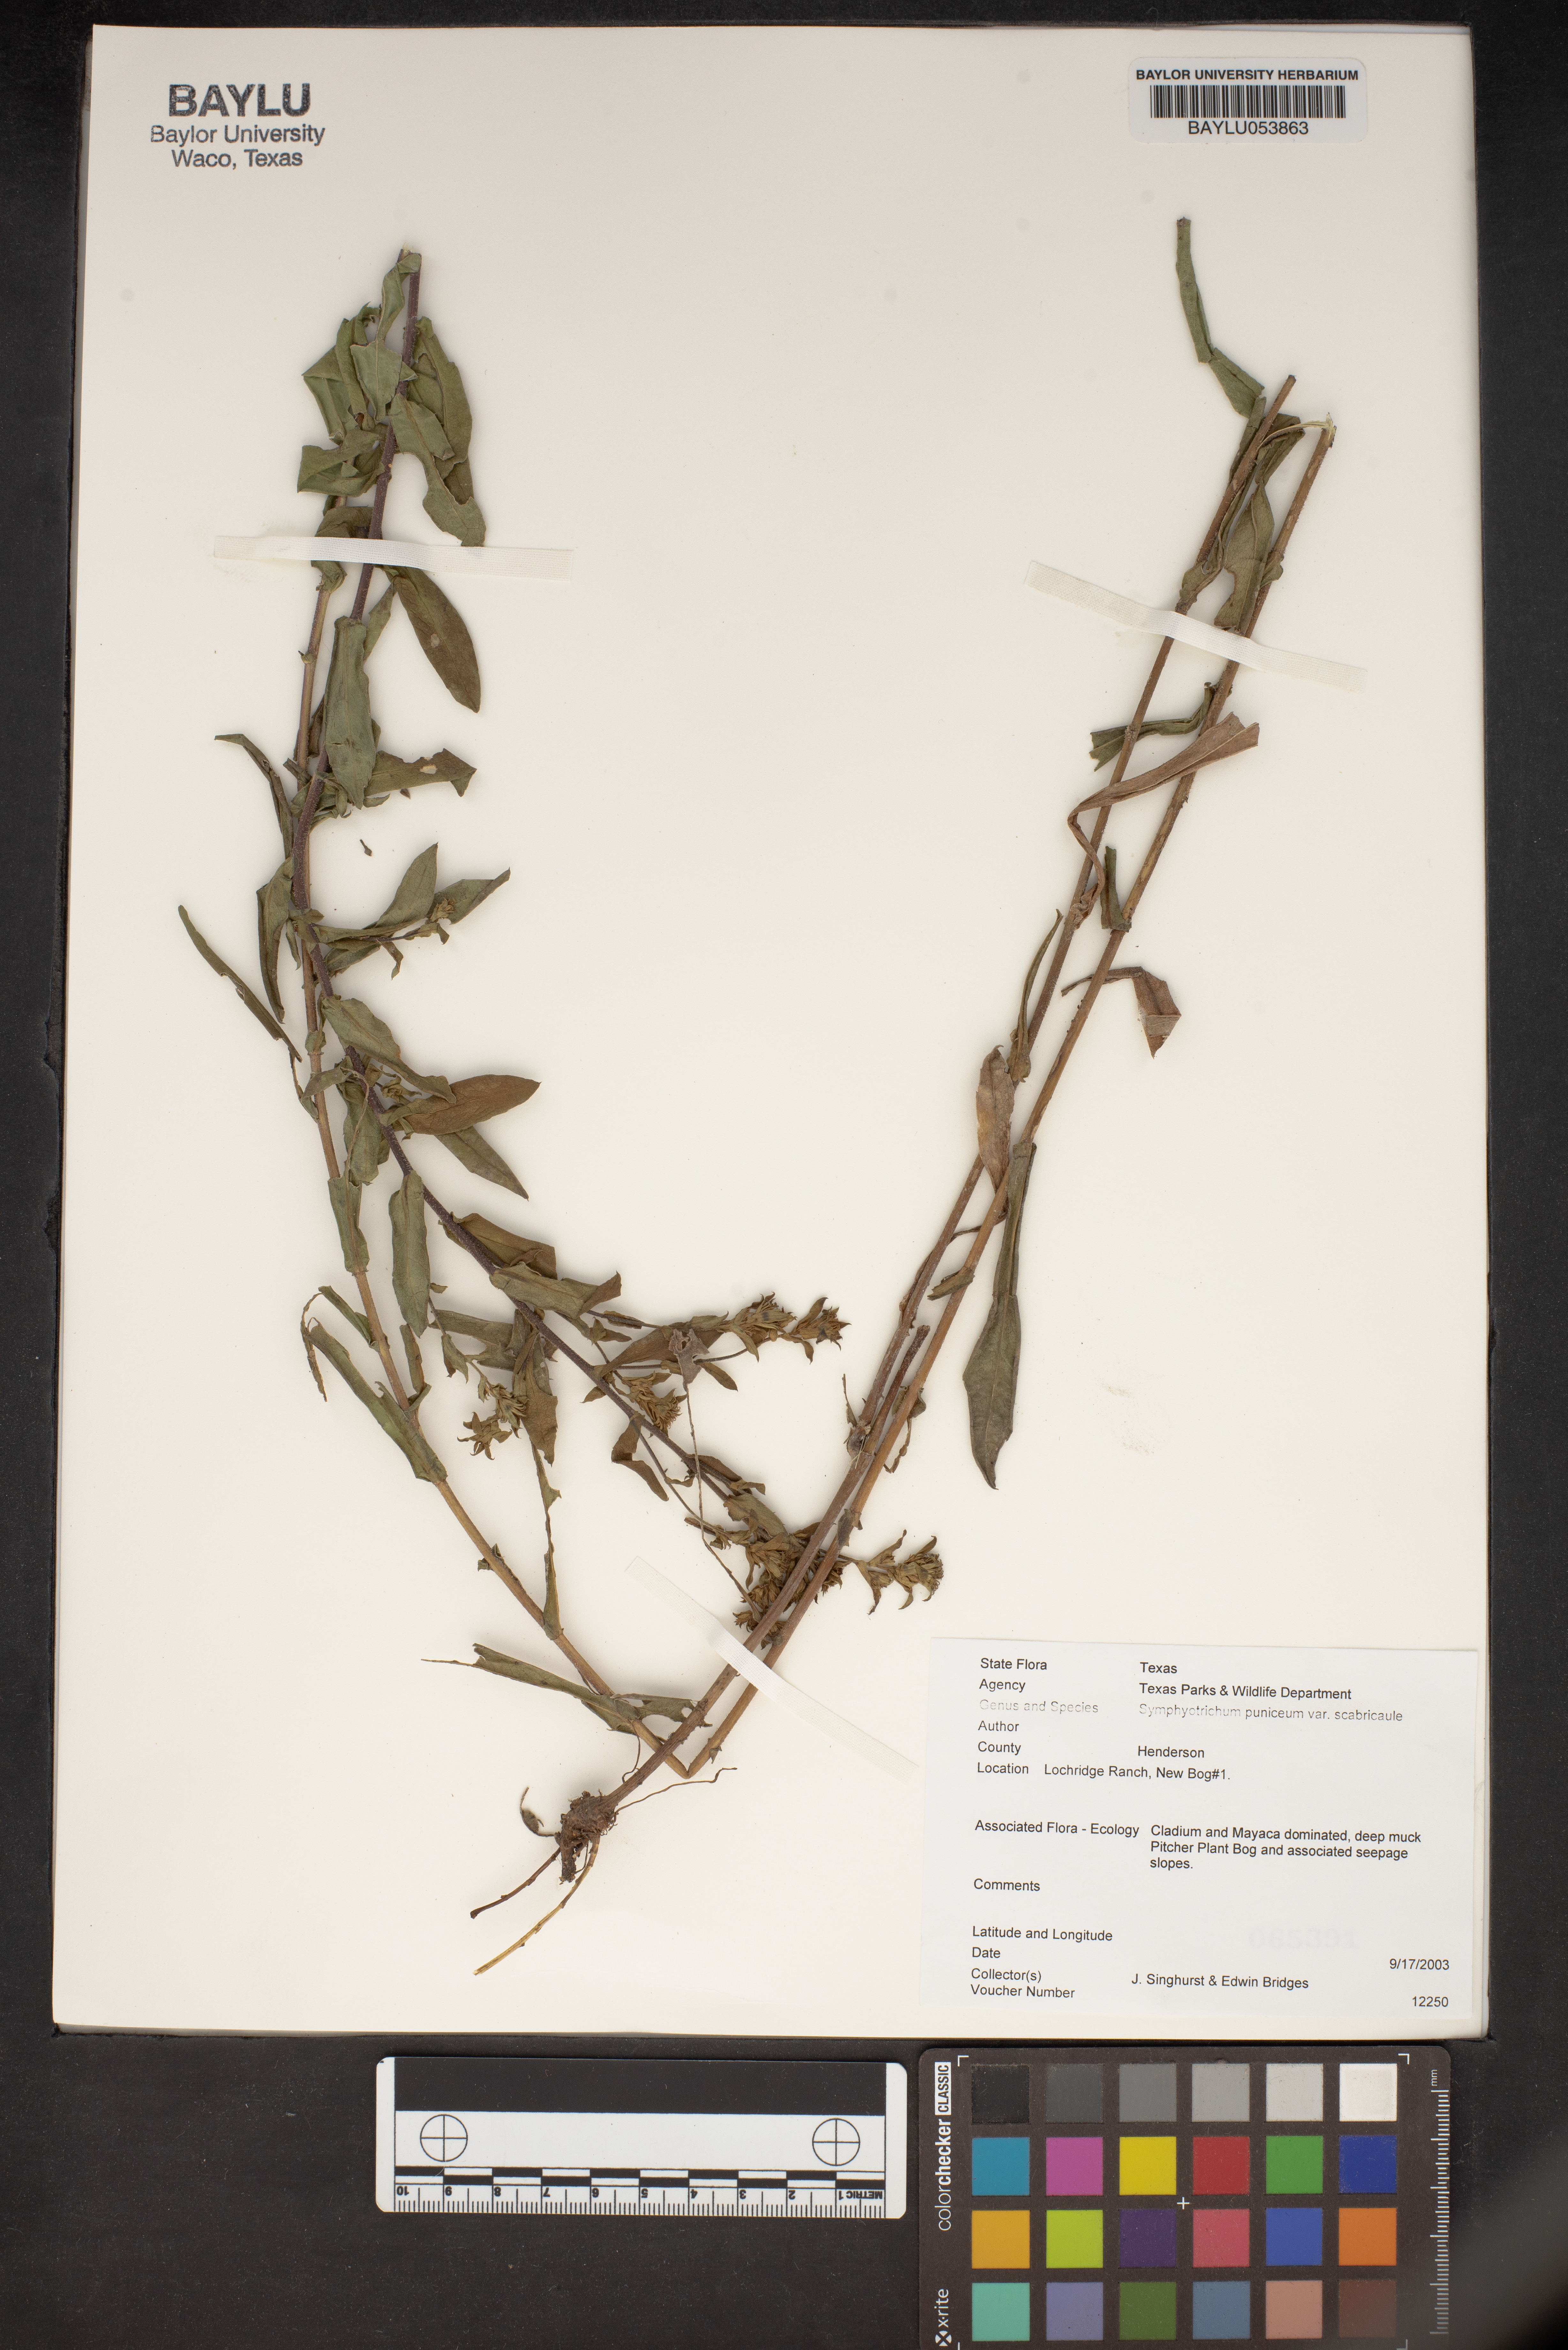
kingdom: Plantae
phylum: Tracheophyta
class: Magnoliopsida
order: Asterales
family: Asteraceae
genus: Symphyotrichum
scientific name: Symphyotrichum puniceum
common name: Bog aster
